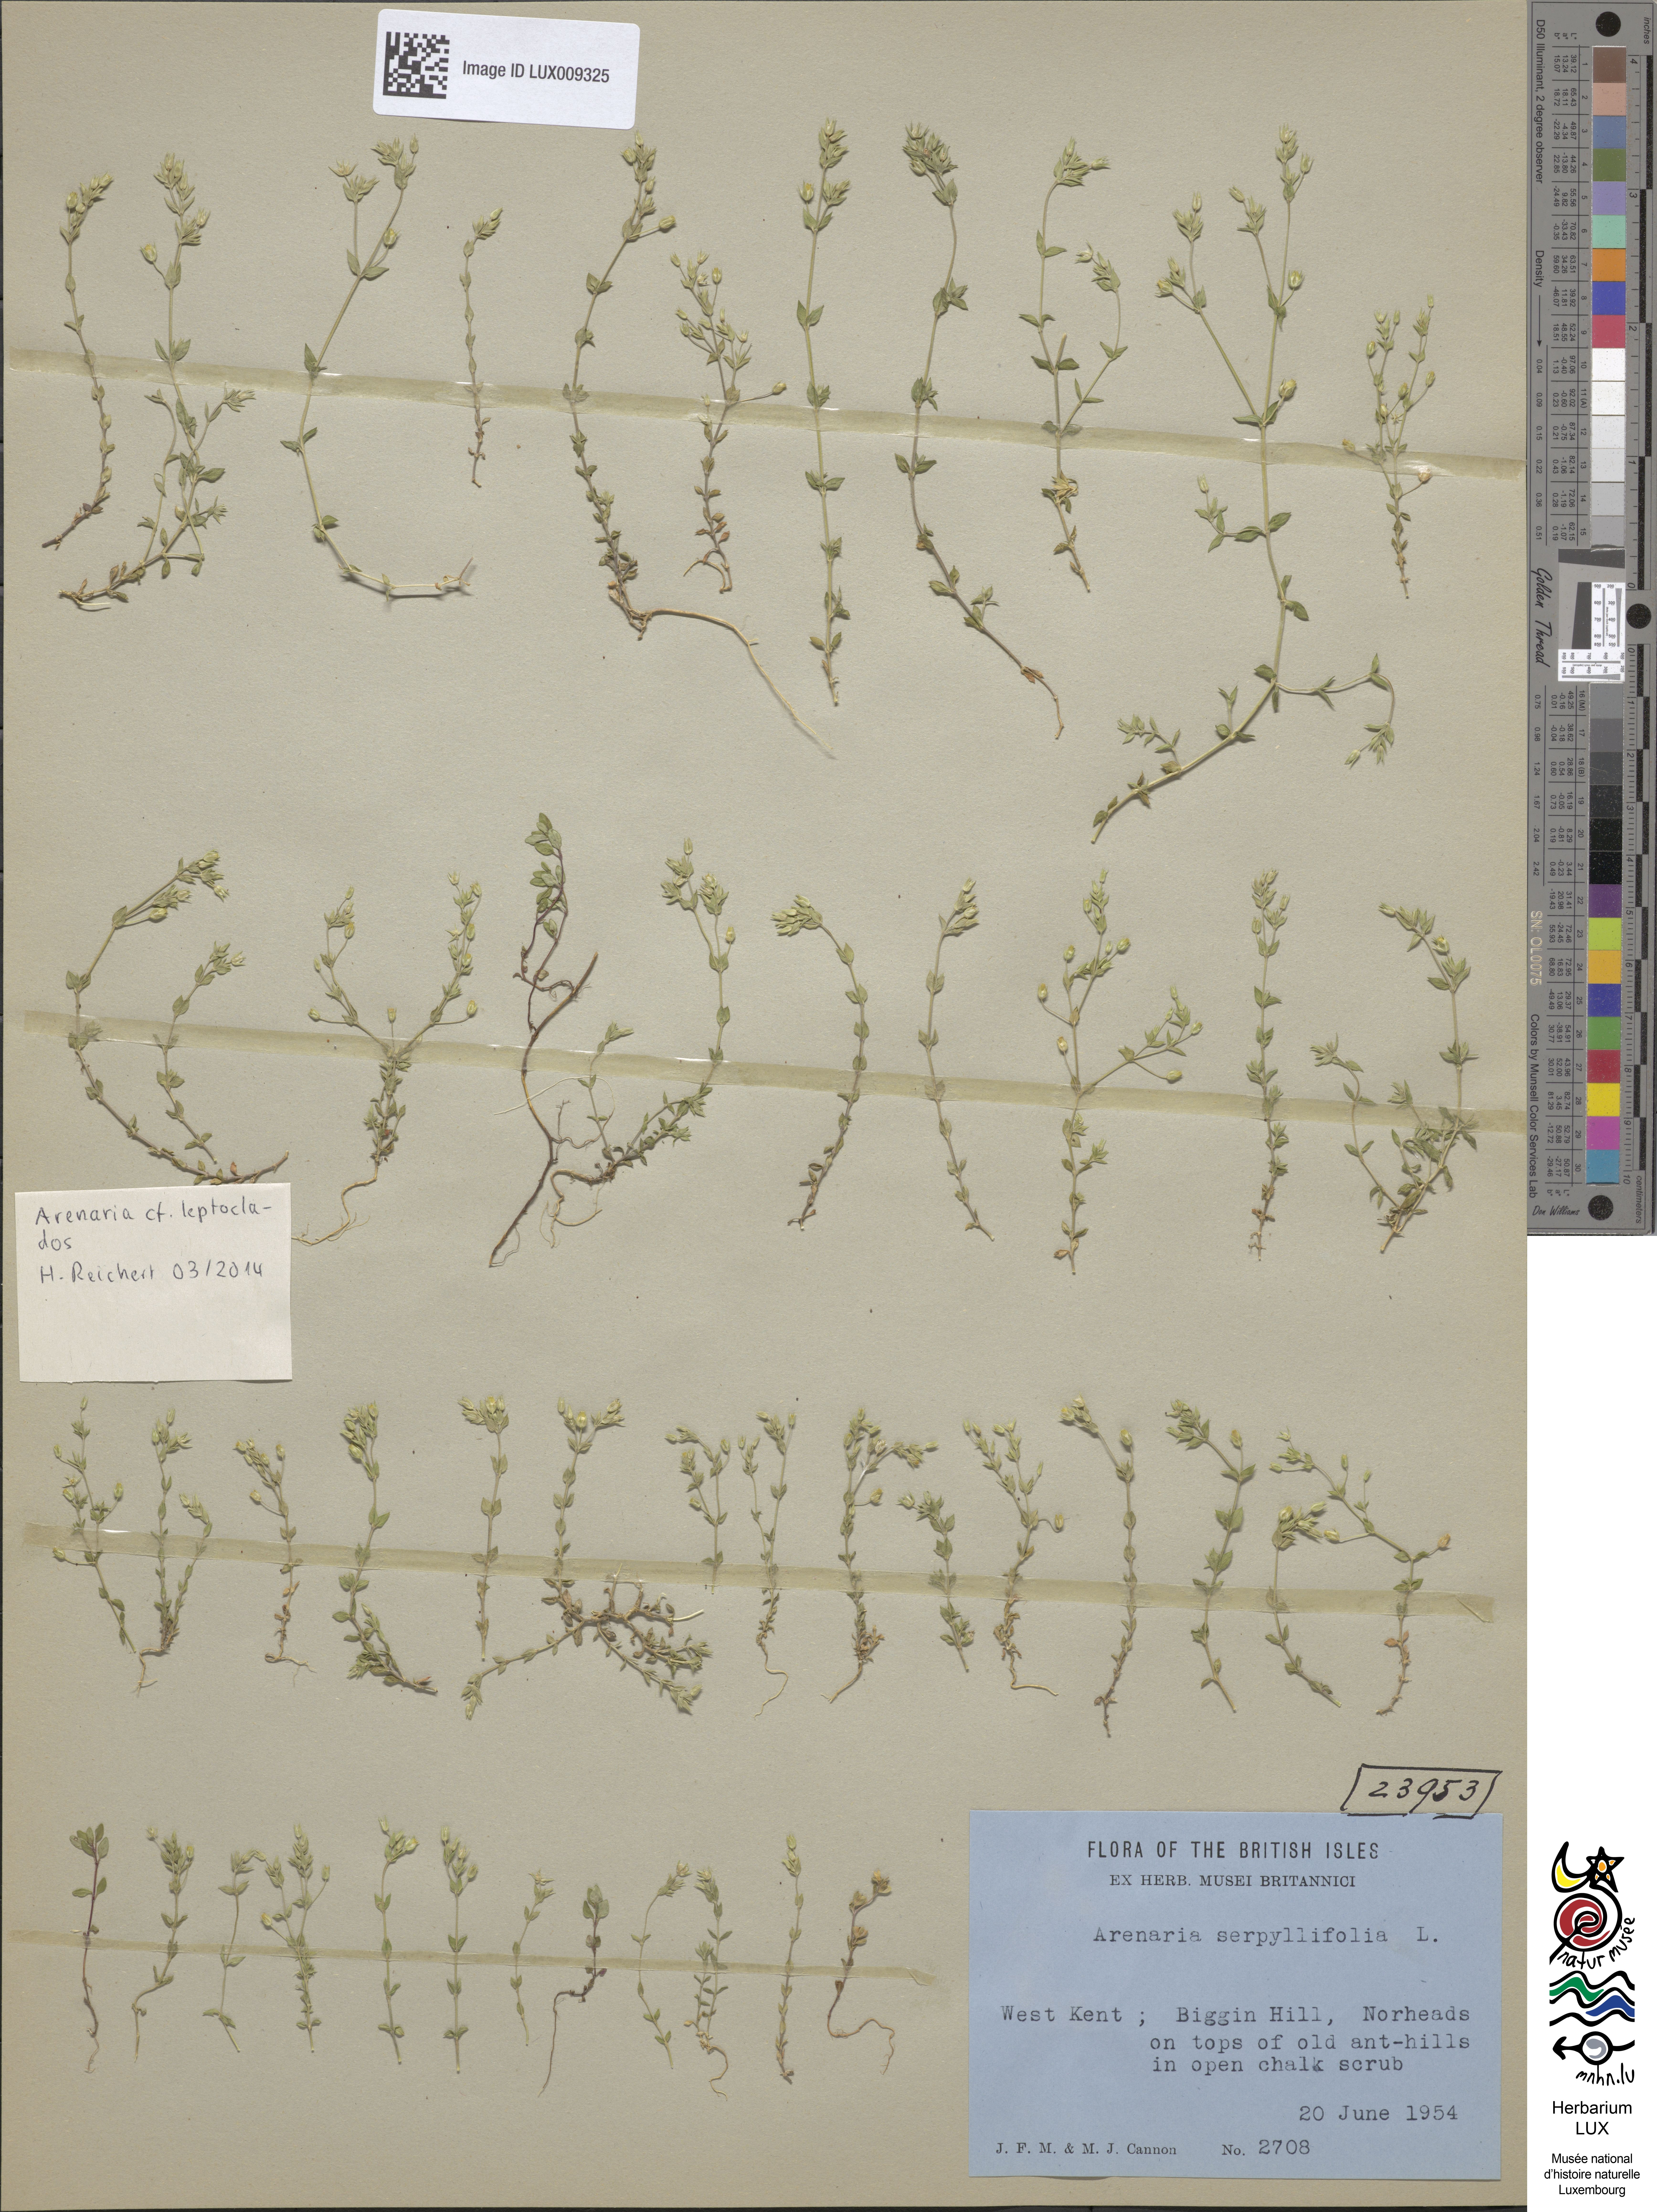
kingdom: Plantae
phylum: Tracheophyta
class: Magnoliopsida
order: Caryophyllales
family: Caryophyllaceae
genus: Arenaria
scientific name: Arenaria leptoclados
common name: Thyme-leaved sandwort
